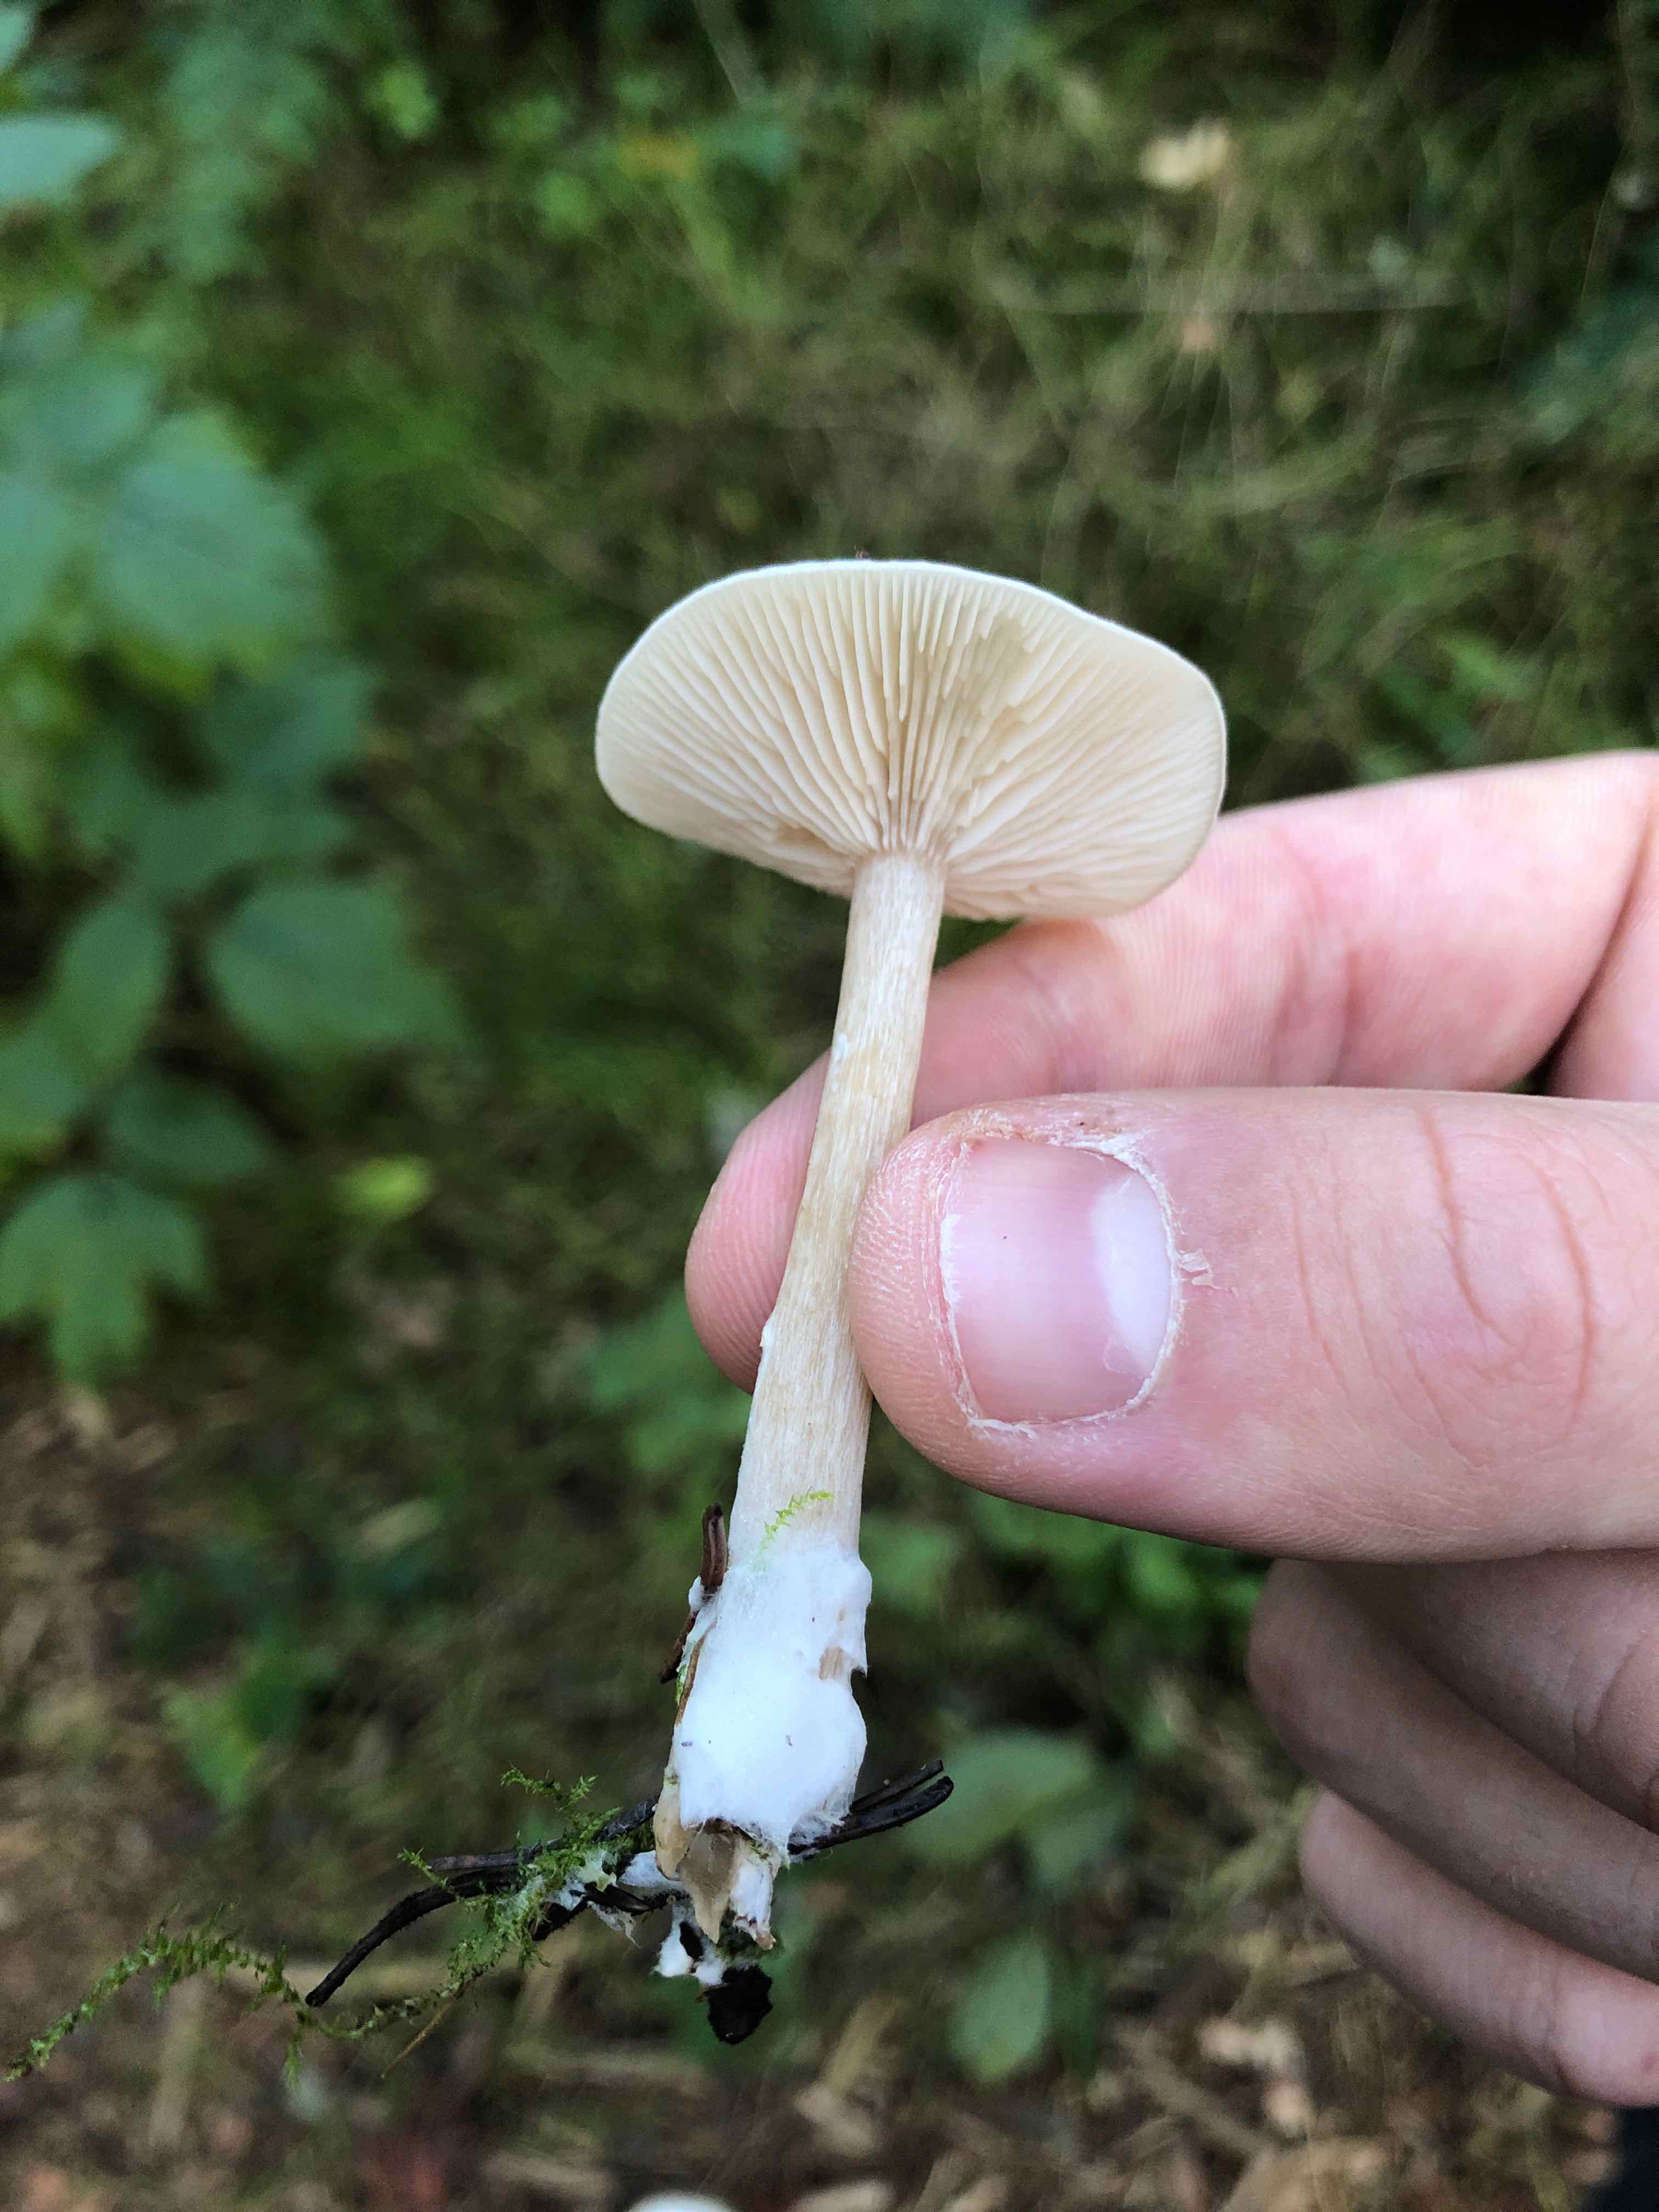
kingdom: Fungi
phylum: Basidiomycota
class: Agaricomycetes
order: Agaricales
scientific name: Agaricales
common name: champignonordenen
